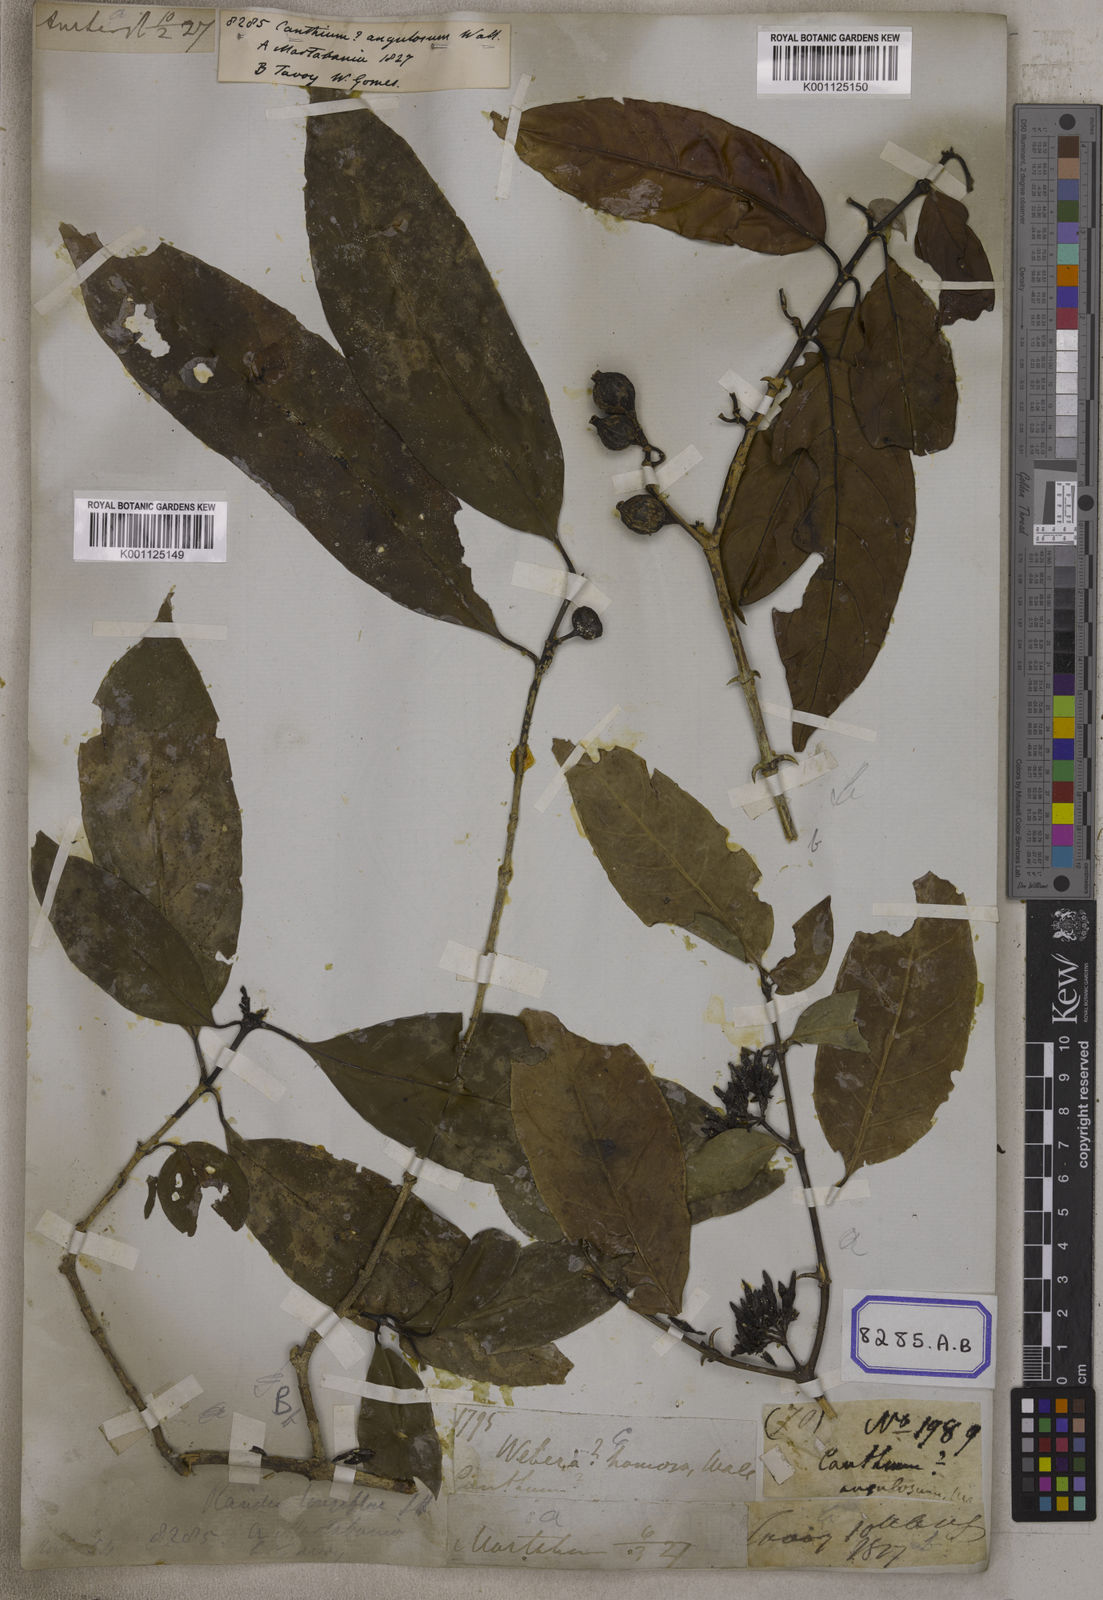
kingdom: Plantae
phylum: Tracheophyta
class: Magnoliopsida
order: Gentianales
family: Rubiaceae
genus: Oxyceros
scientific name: Oxyceros longiflorus
